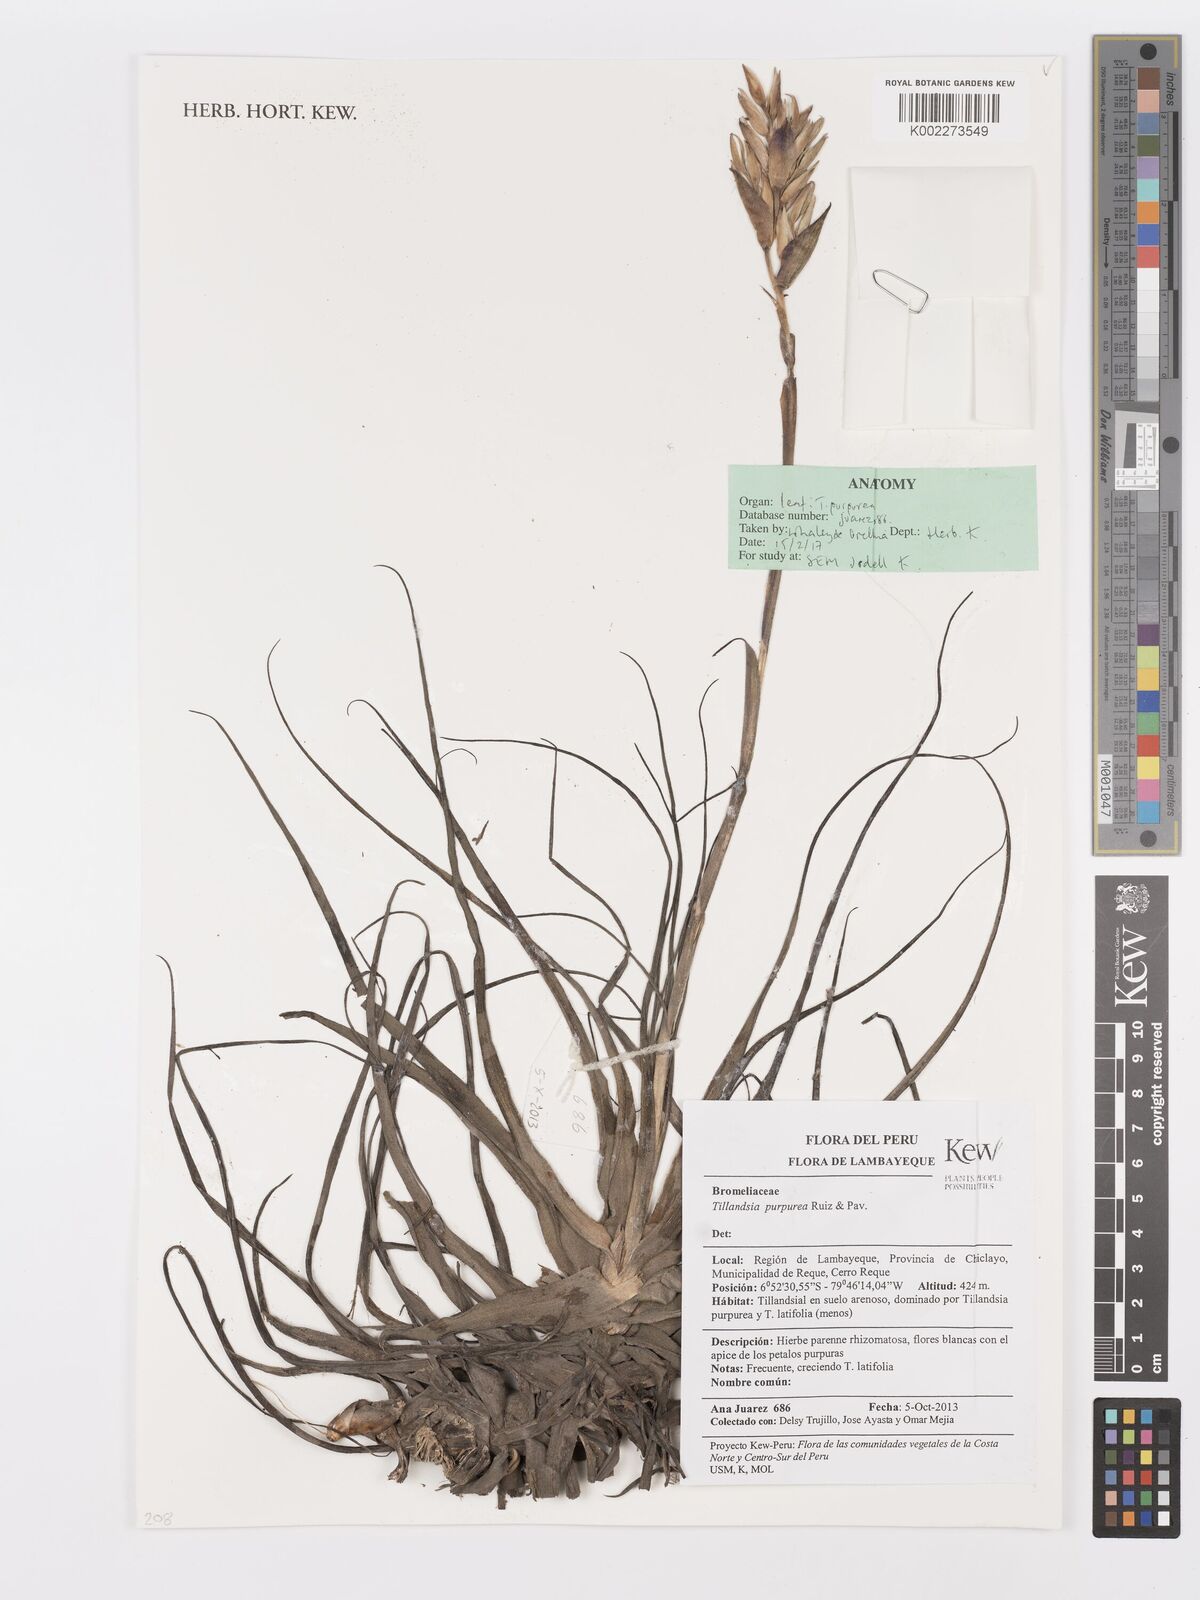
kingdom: Plantae
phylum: Tracheophyta
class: Liliopsida
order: Poales
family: Bromeliaceae
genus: Tillandsia
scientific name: Tillandsia purpurea
